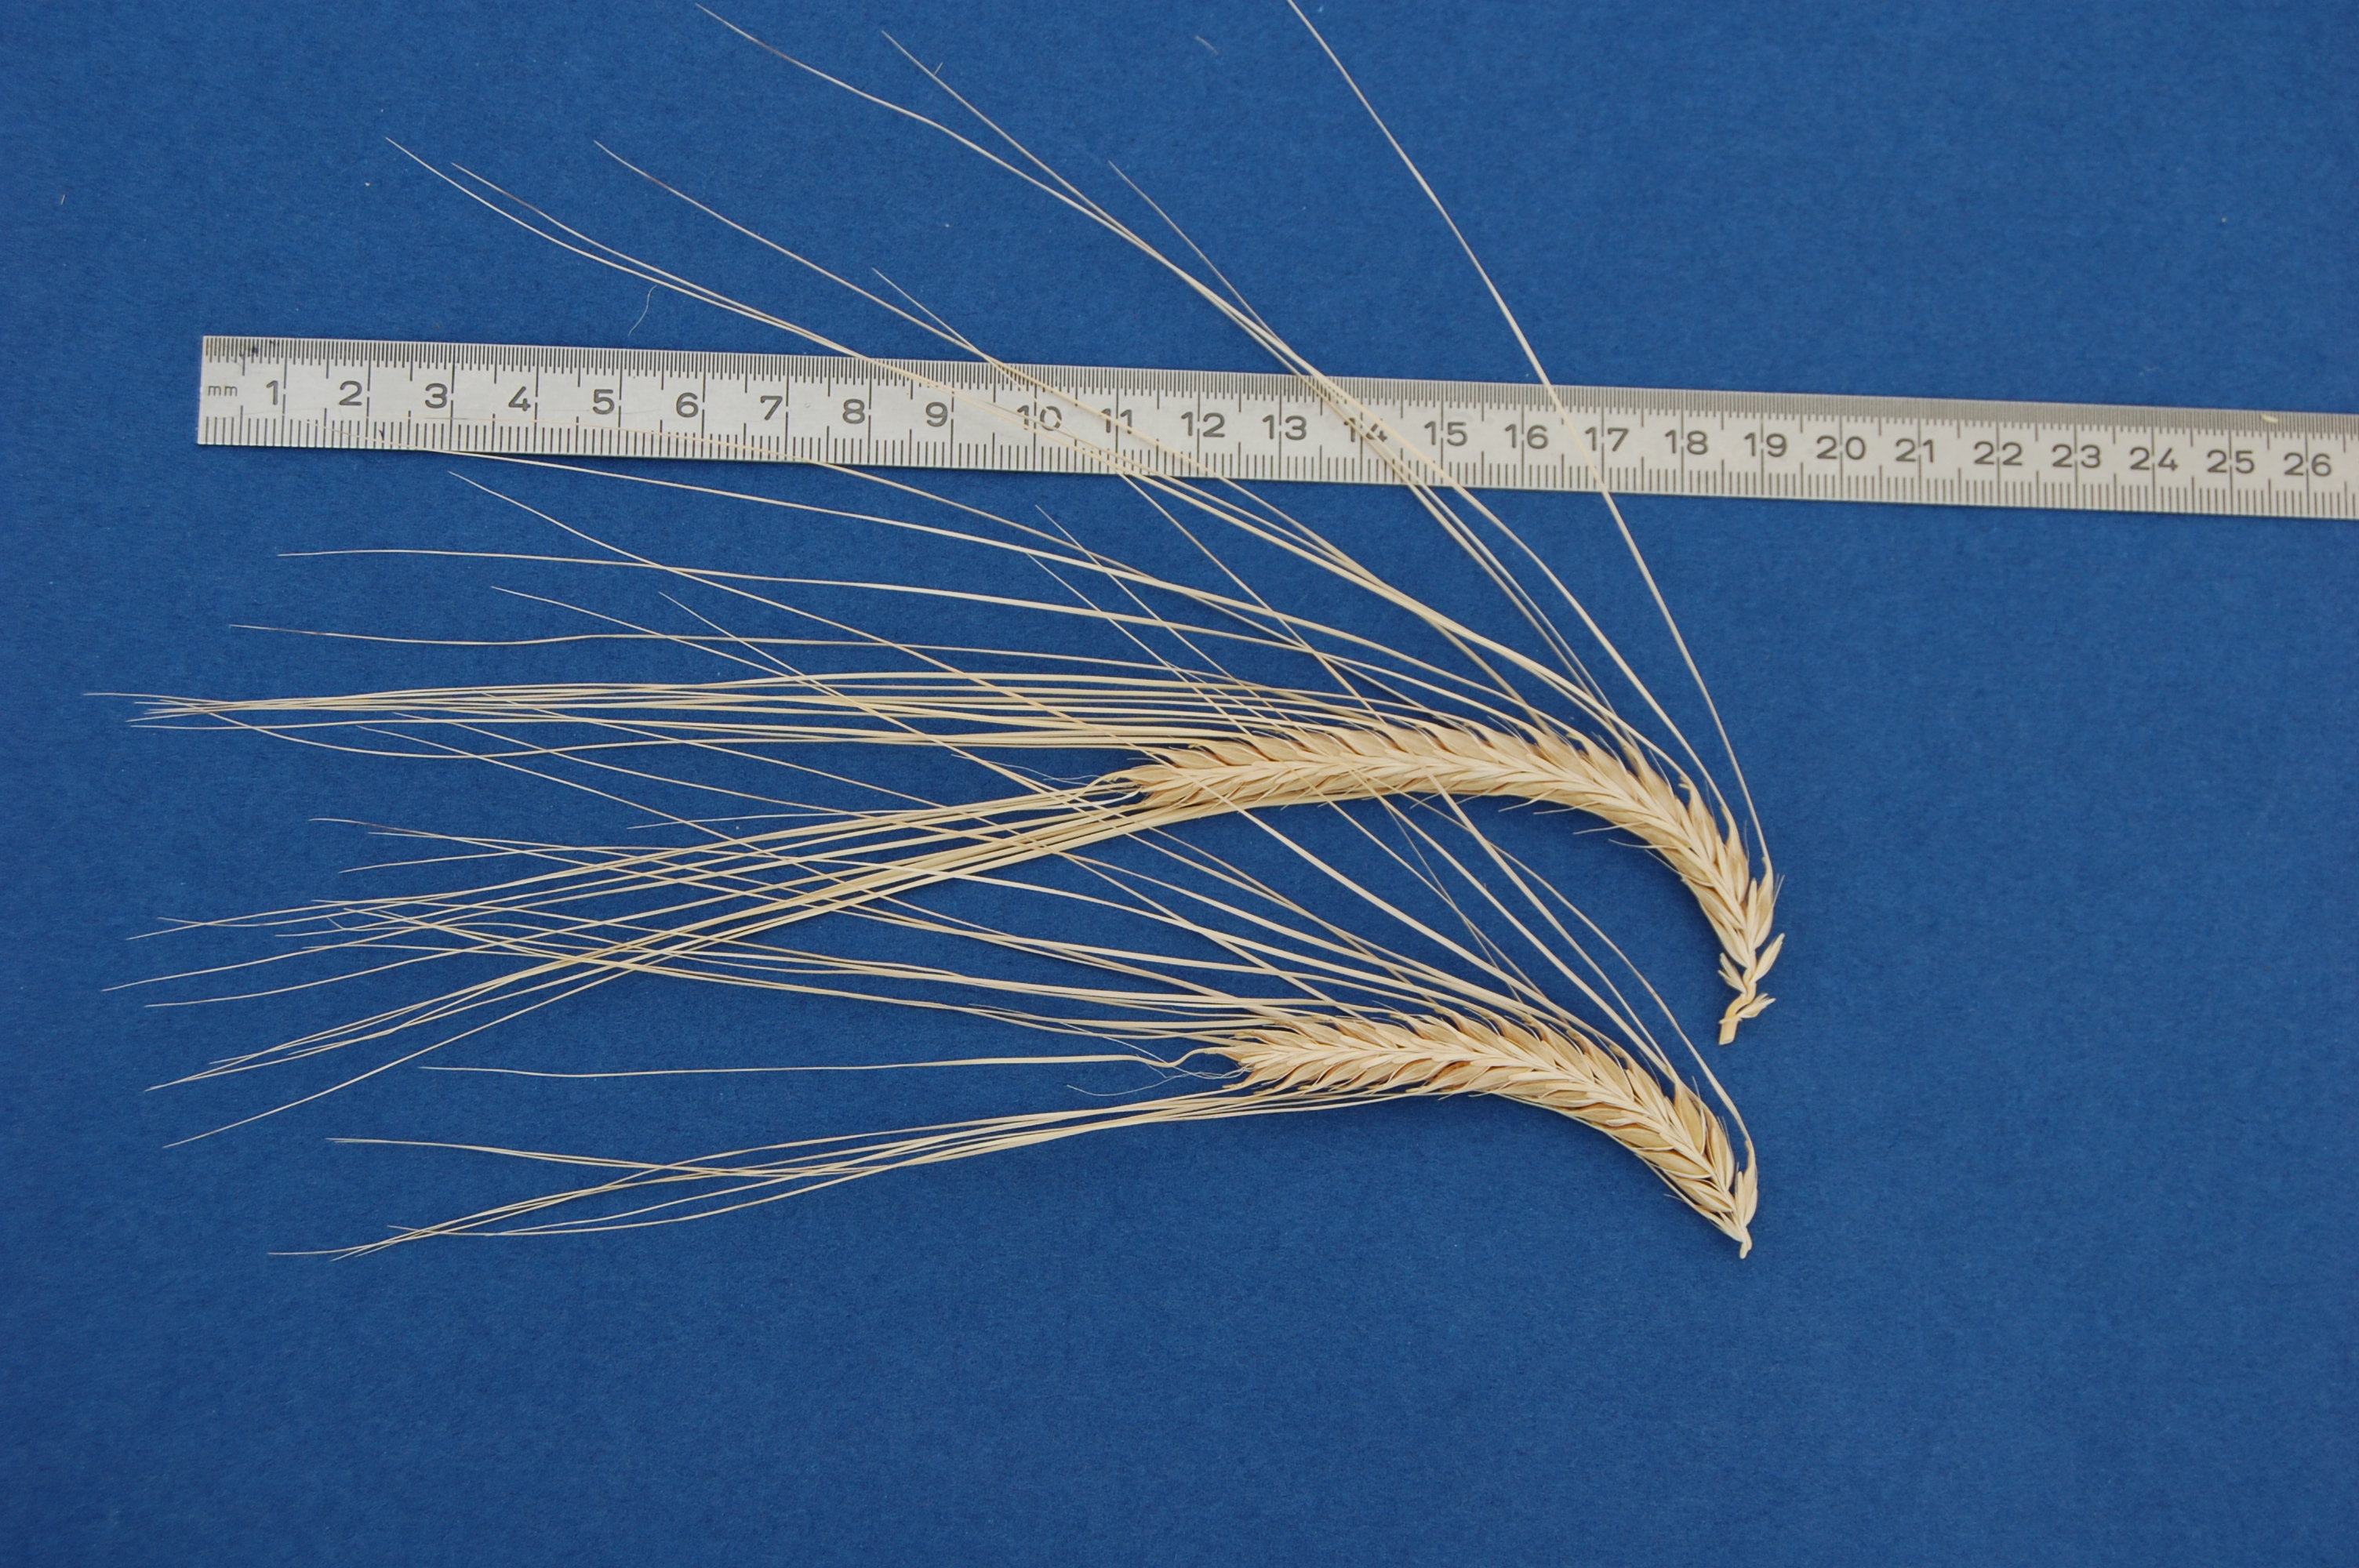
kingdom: Plantae
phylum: Tracheophyta
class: Liliopsida
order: Poales
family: Poaceae
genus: Hordeum
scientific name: Hordeum vulgare
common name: Common barley
